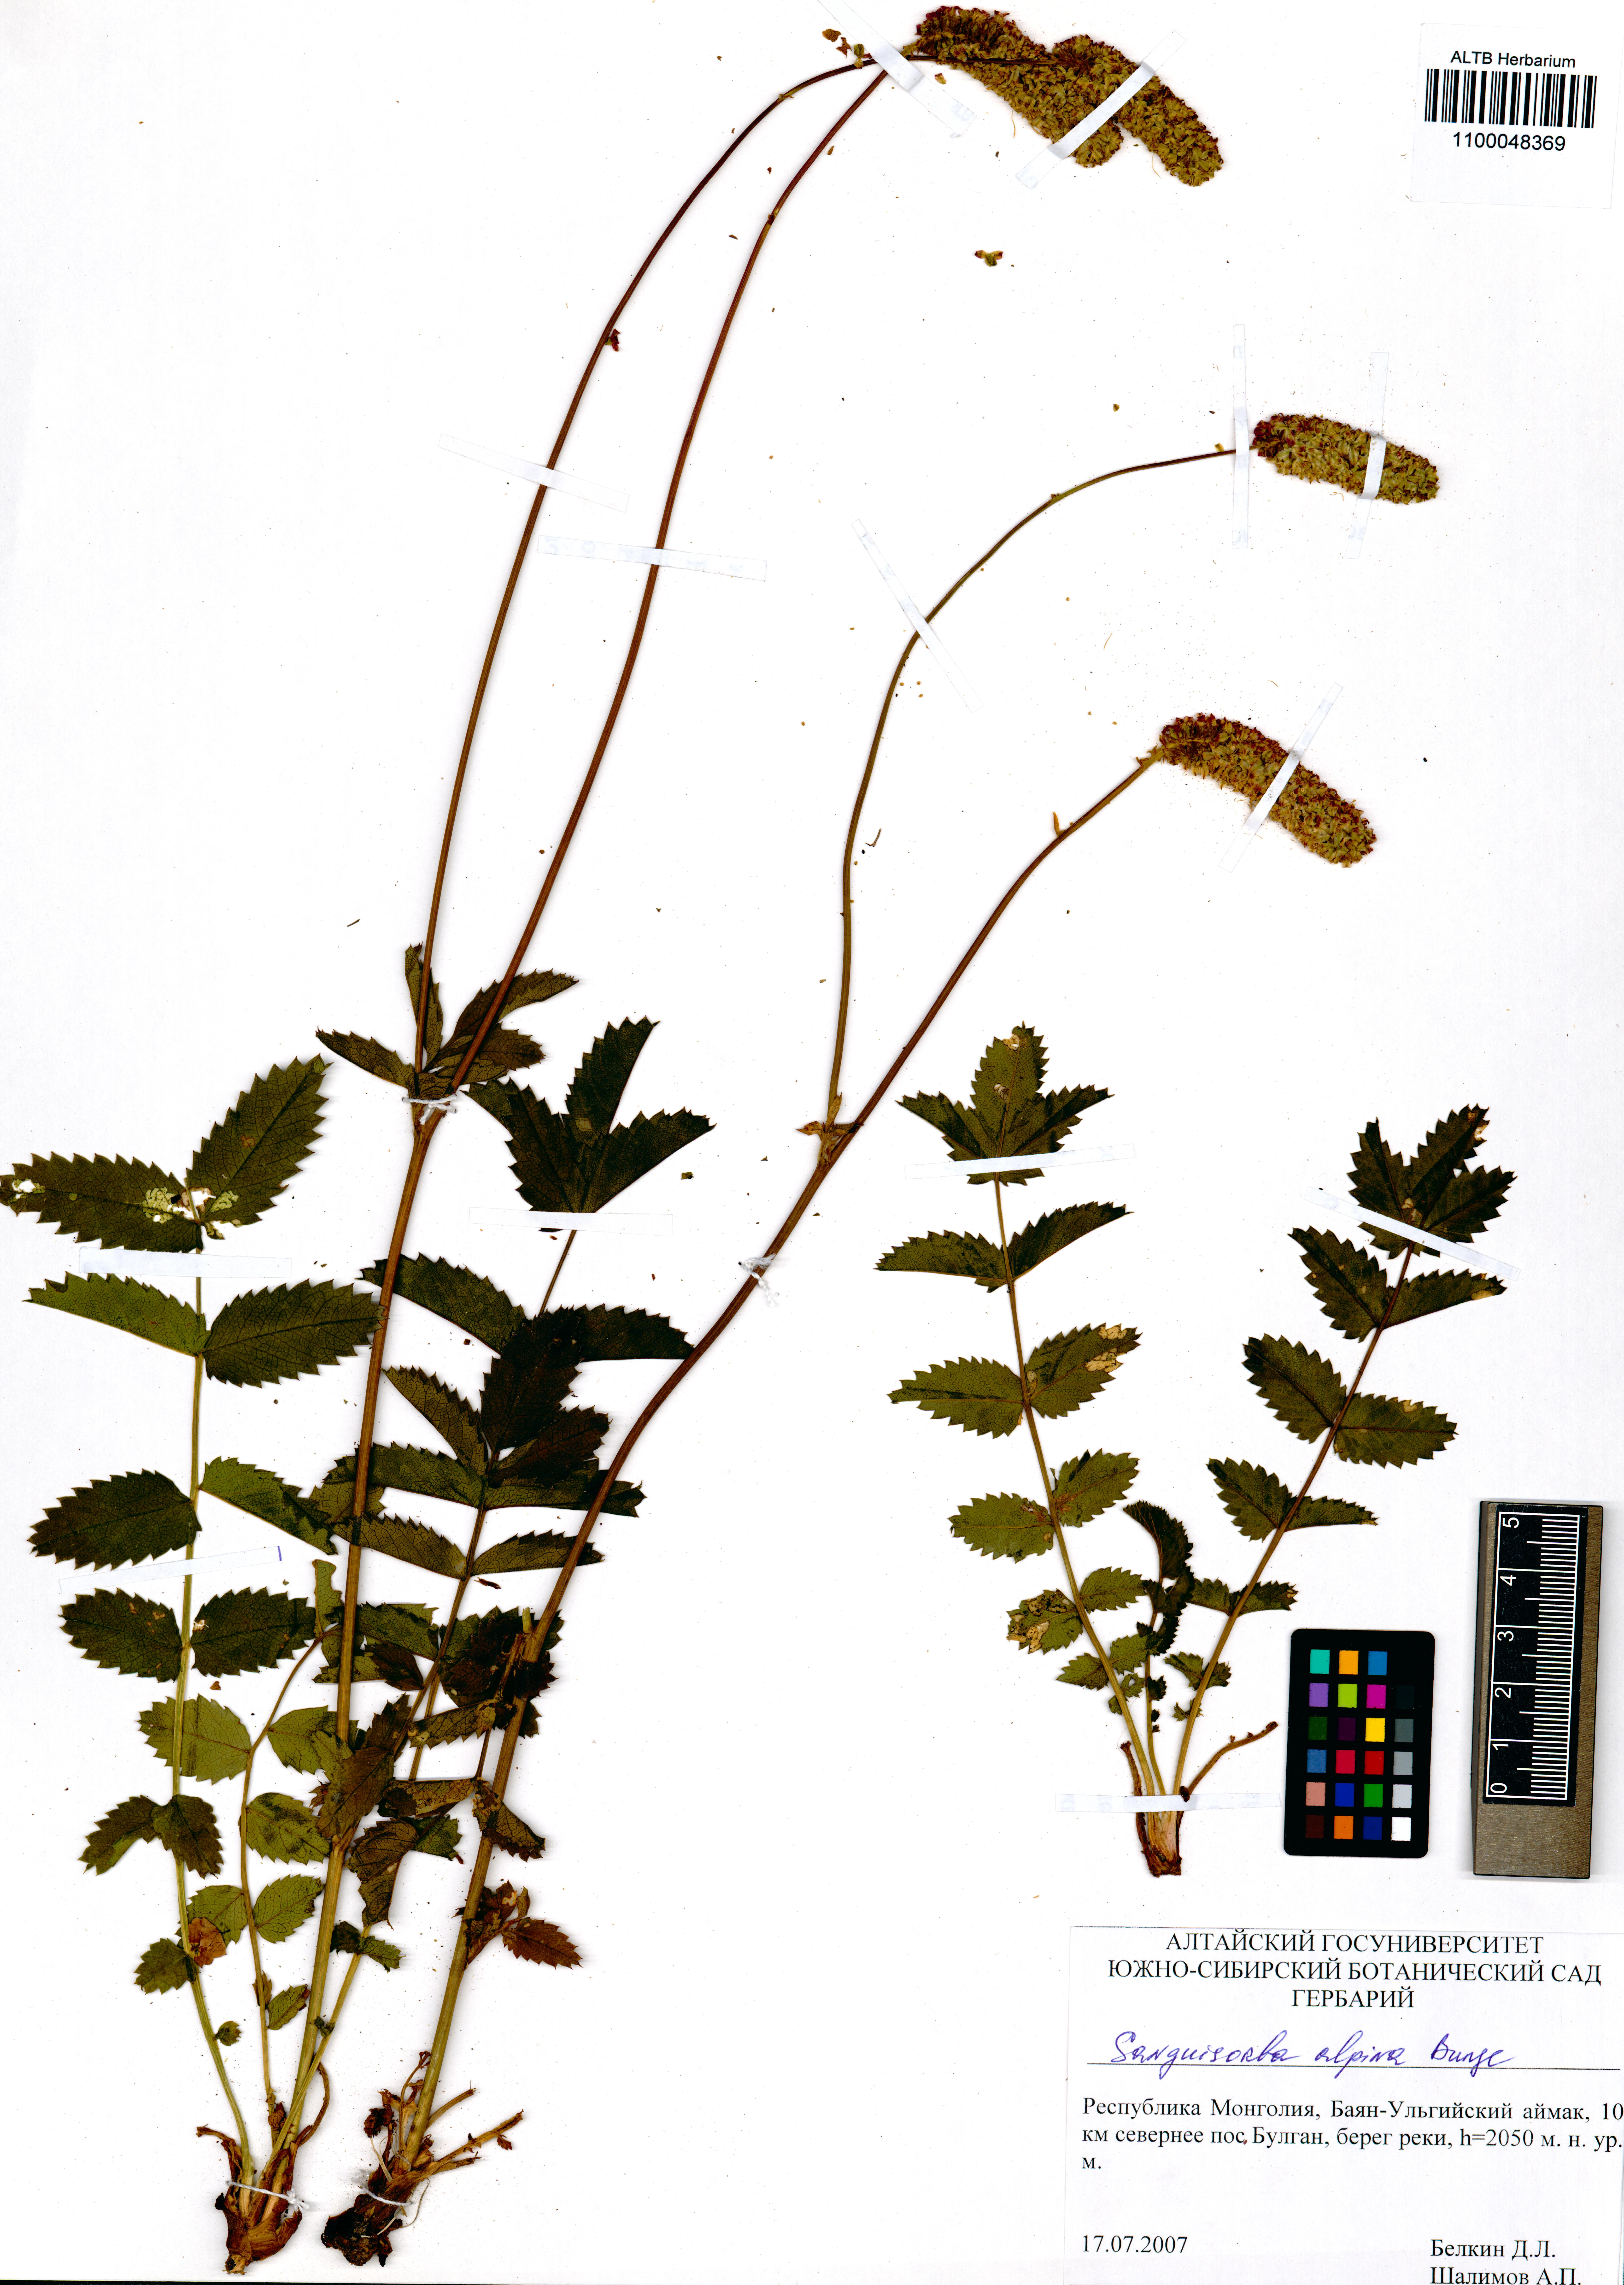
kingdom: Plantae
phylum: Tracheophyta
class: Magnoliopsida
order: Rosales
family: Rosaceae
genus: Sanguisorba
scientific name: Sanguisorba alpina
